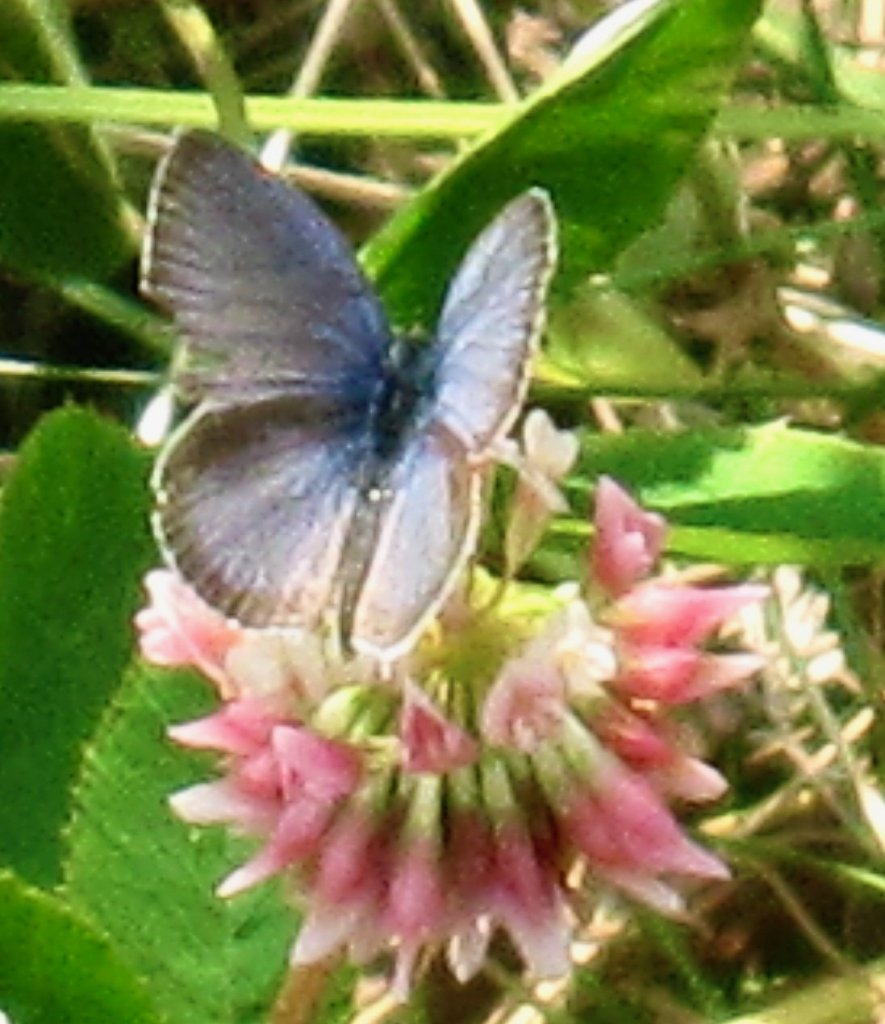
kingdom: Animalia
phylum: Arthropoda
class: Insecta
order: Lepidoptera
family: Lycaenidae
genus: Elkalyce
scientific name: Elkalyce comyntas
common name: Eastern Tailed-Blue
